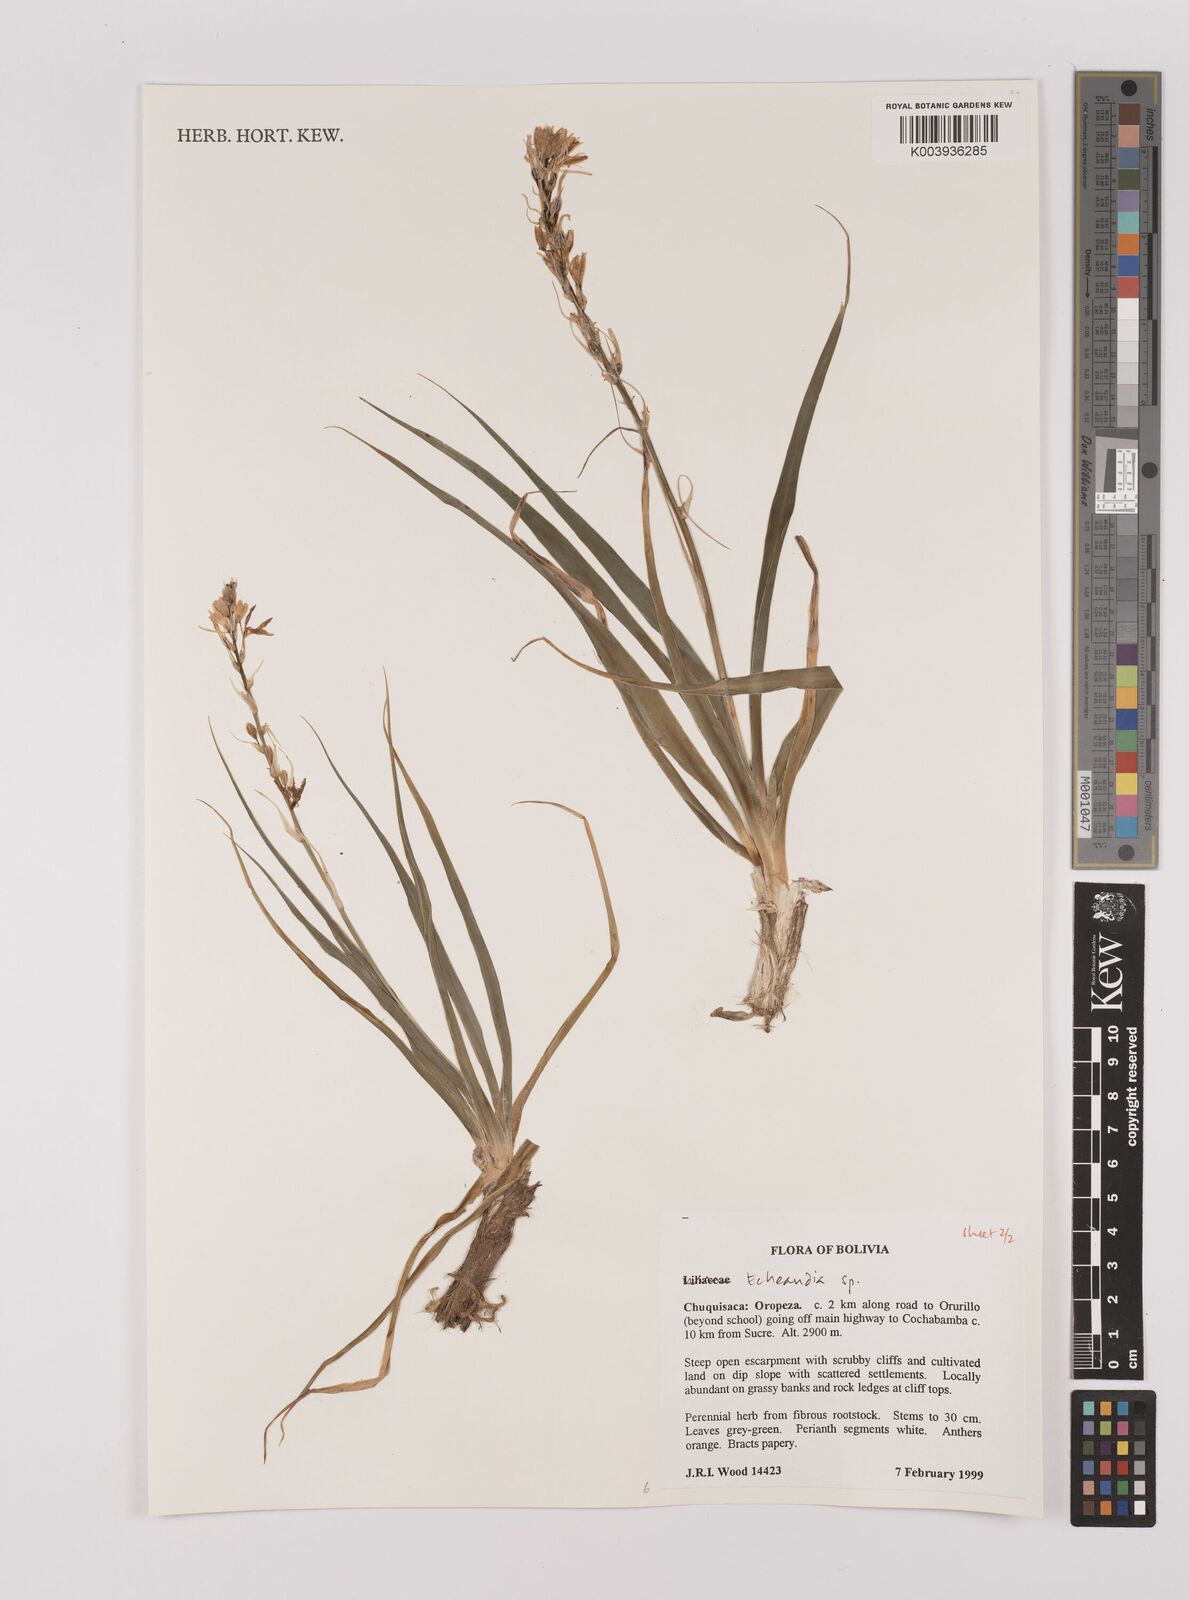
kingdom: Plantae
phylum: Tracheophyta
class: Liliopsida
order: Asparagales
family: Asparagaceae
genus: Echeandia
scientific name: Echeandia
